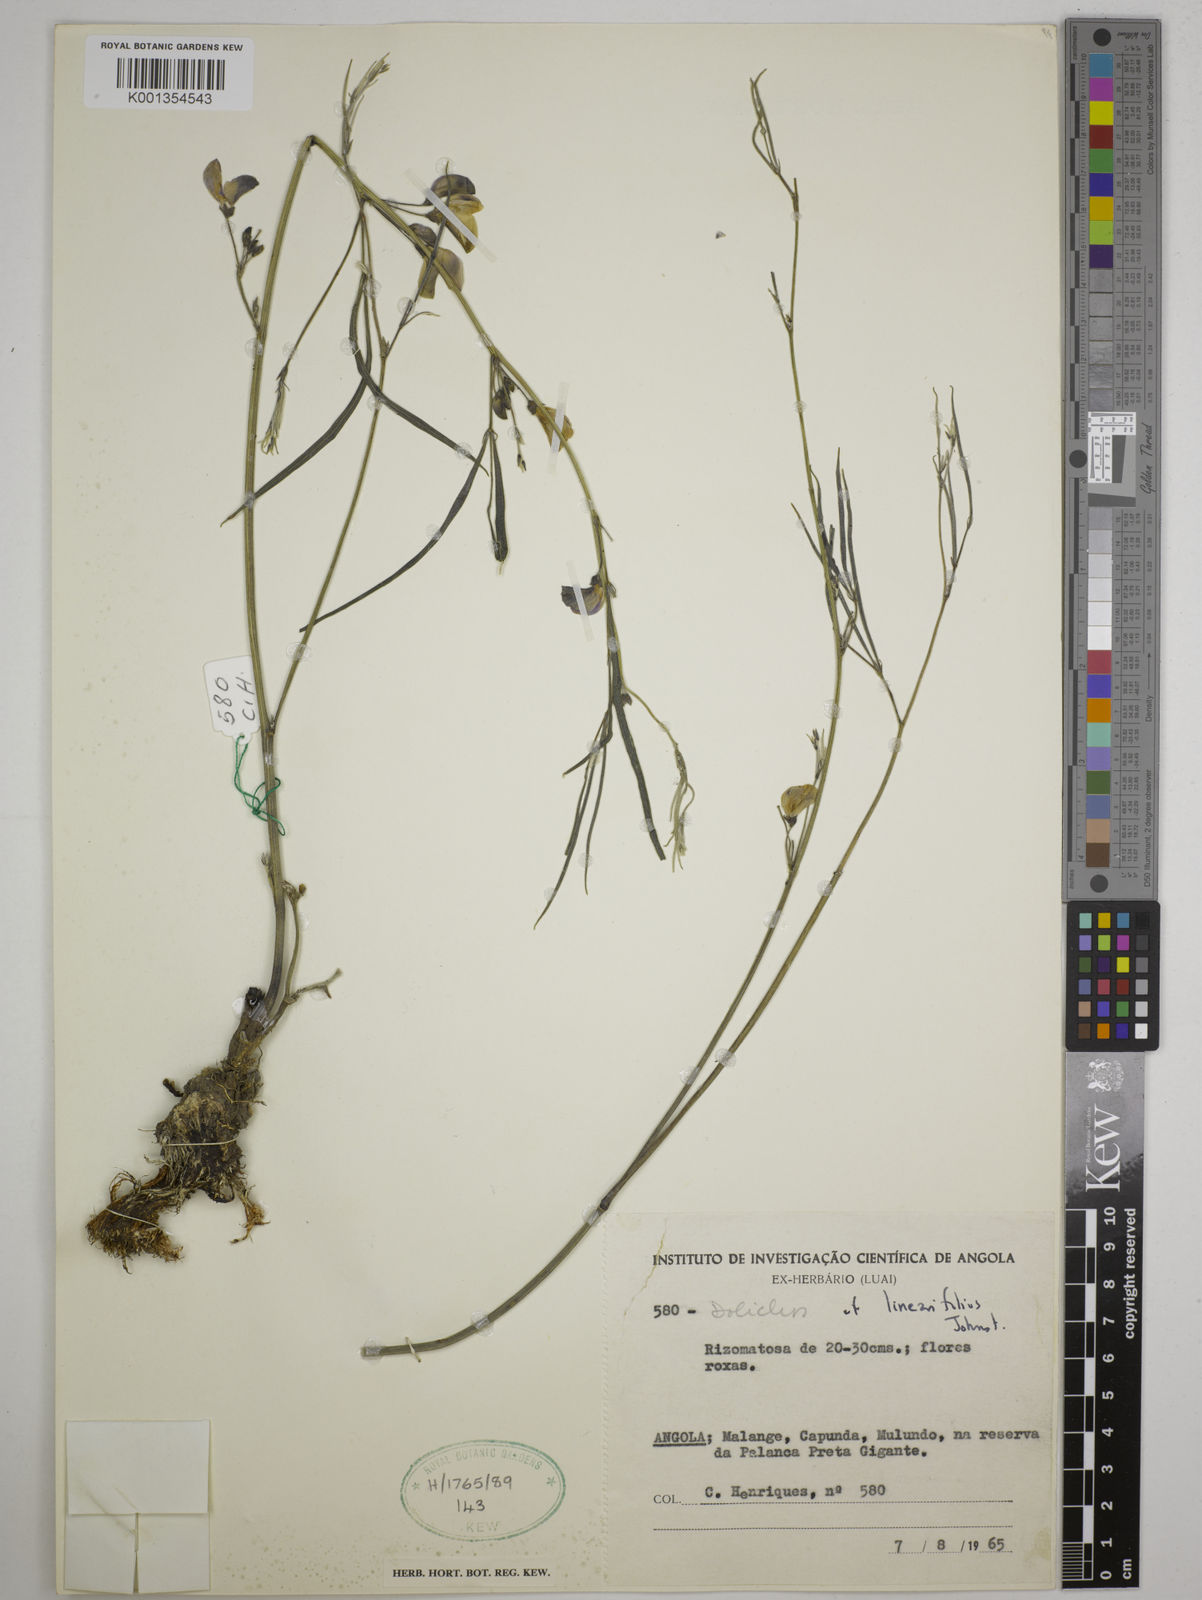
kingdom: Plantae
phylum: Tracheophyta
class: Magnoliopsida
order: Fabales
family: Fabaceae
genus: Dolichos
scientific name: Dolichos linearifolius
